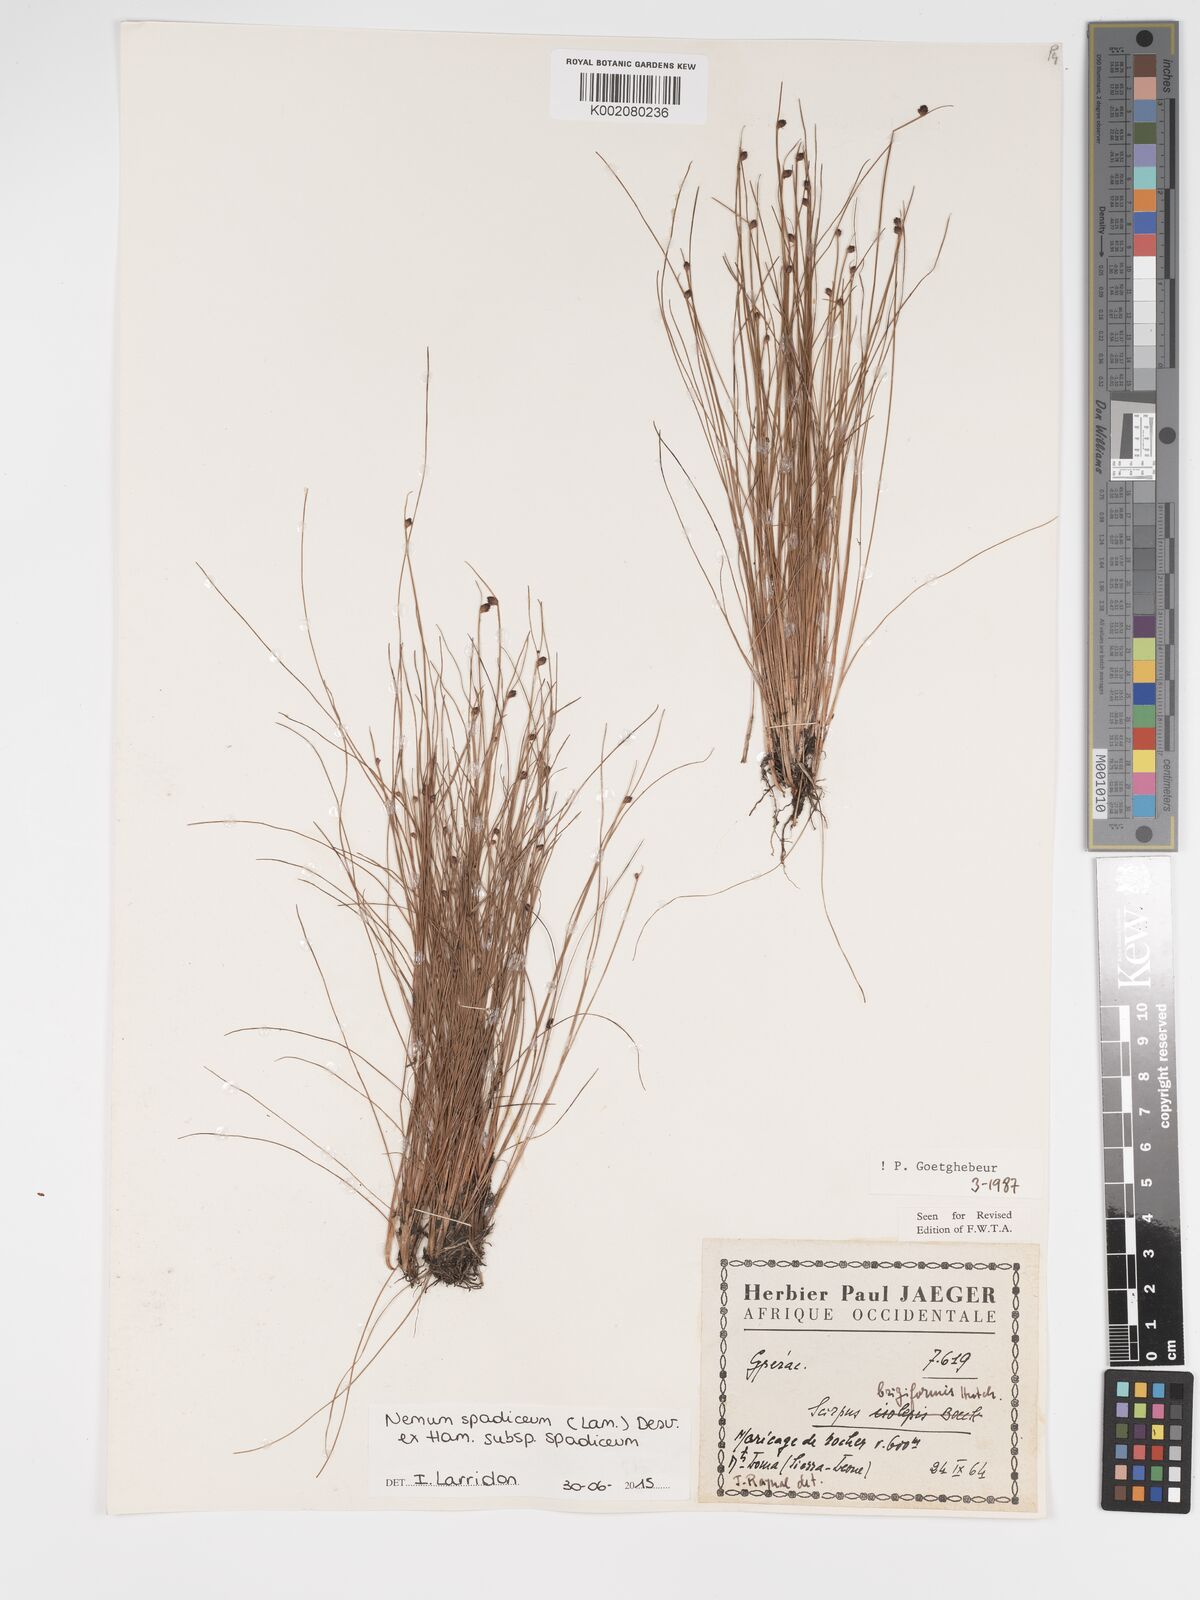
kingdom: Plantae
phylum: Tracheophyta
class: Liliopsida
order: Poales
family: Cyperaceae
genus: Bulbostylis
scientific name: Bulbostylis briziformis
